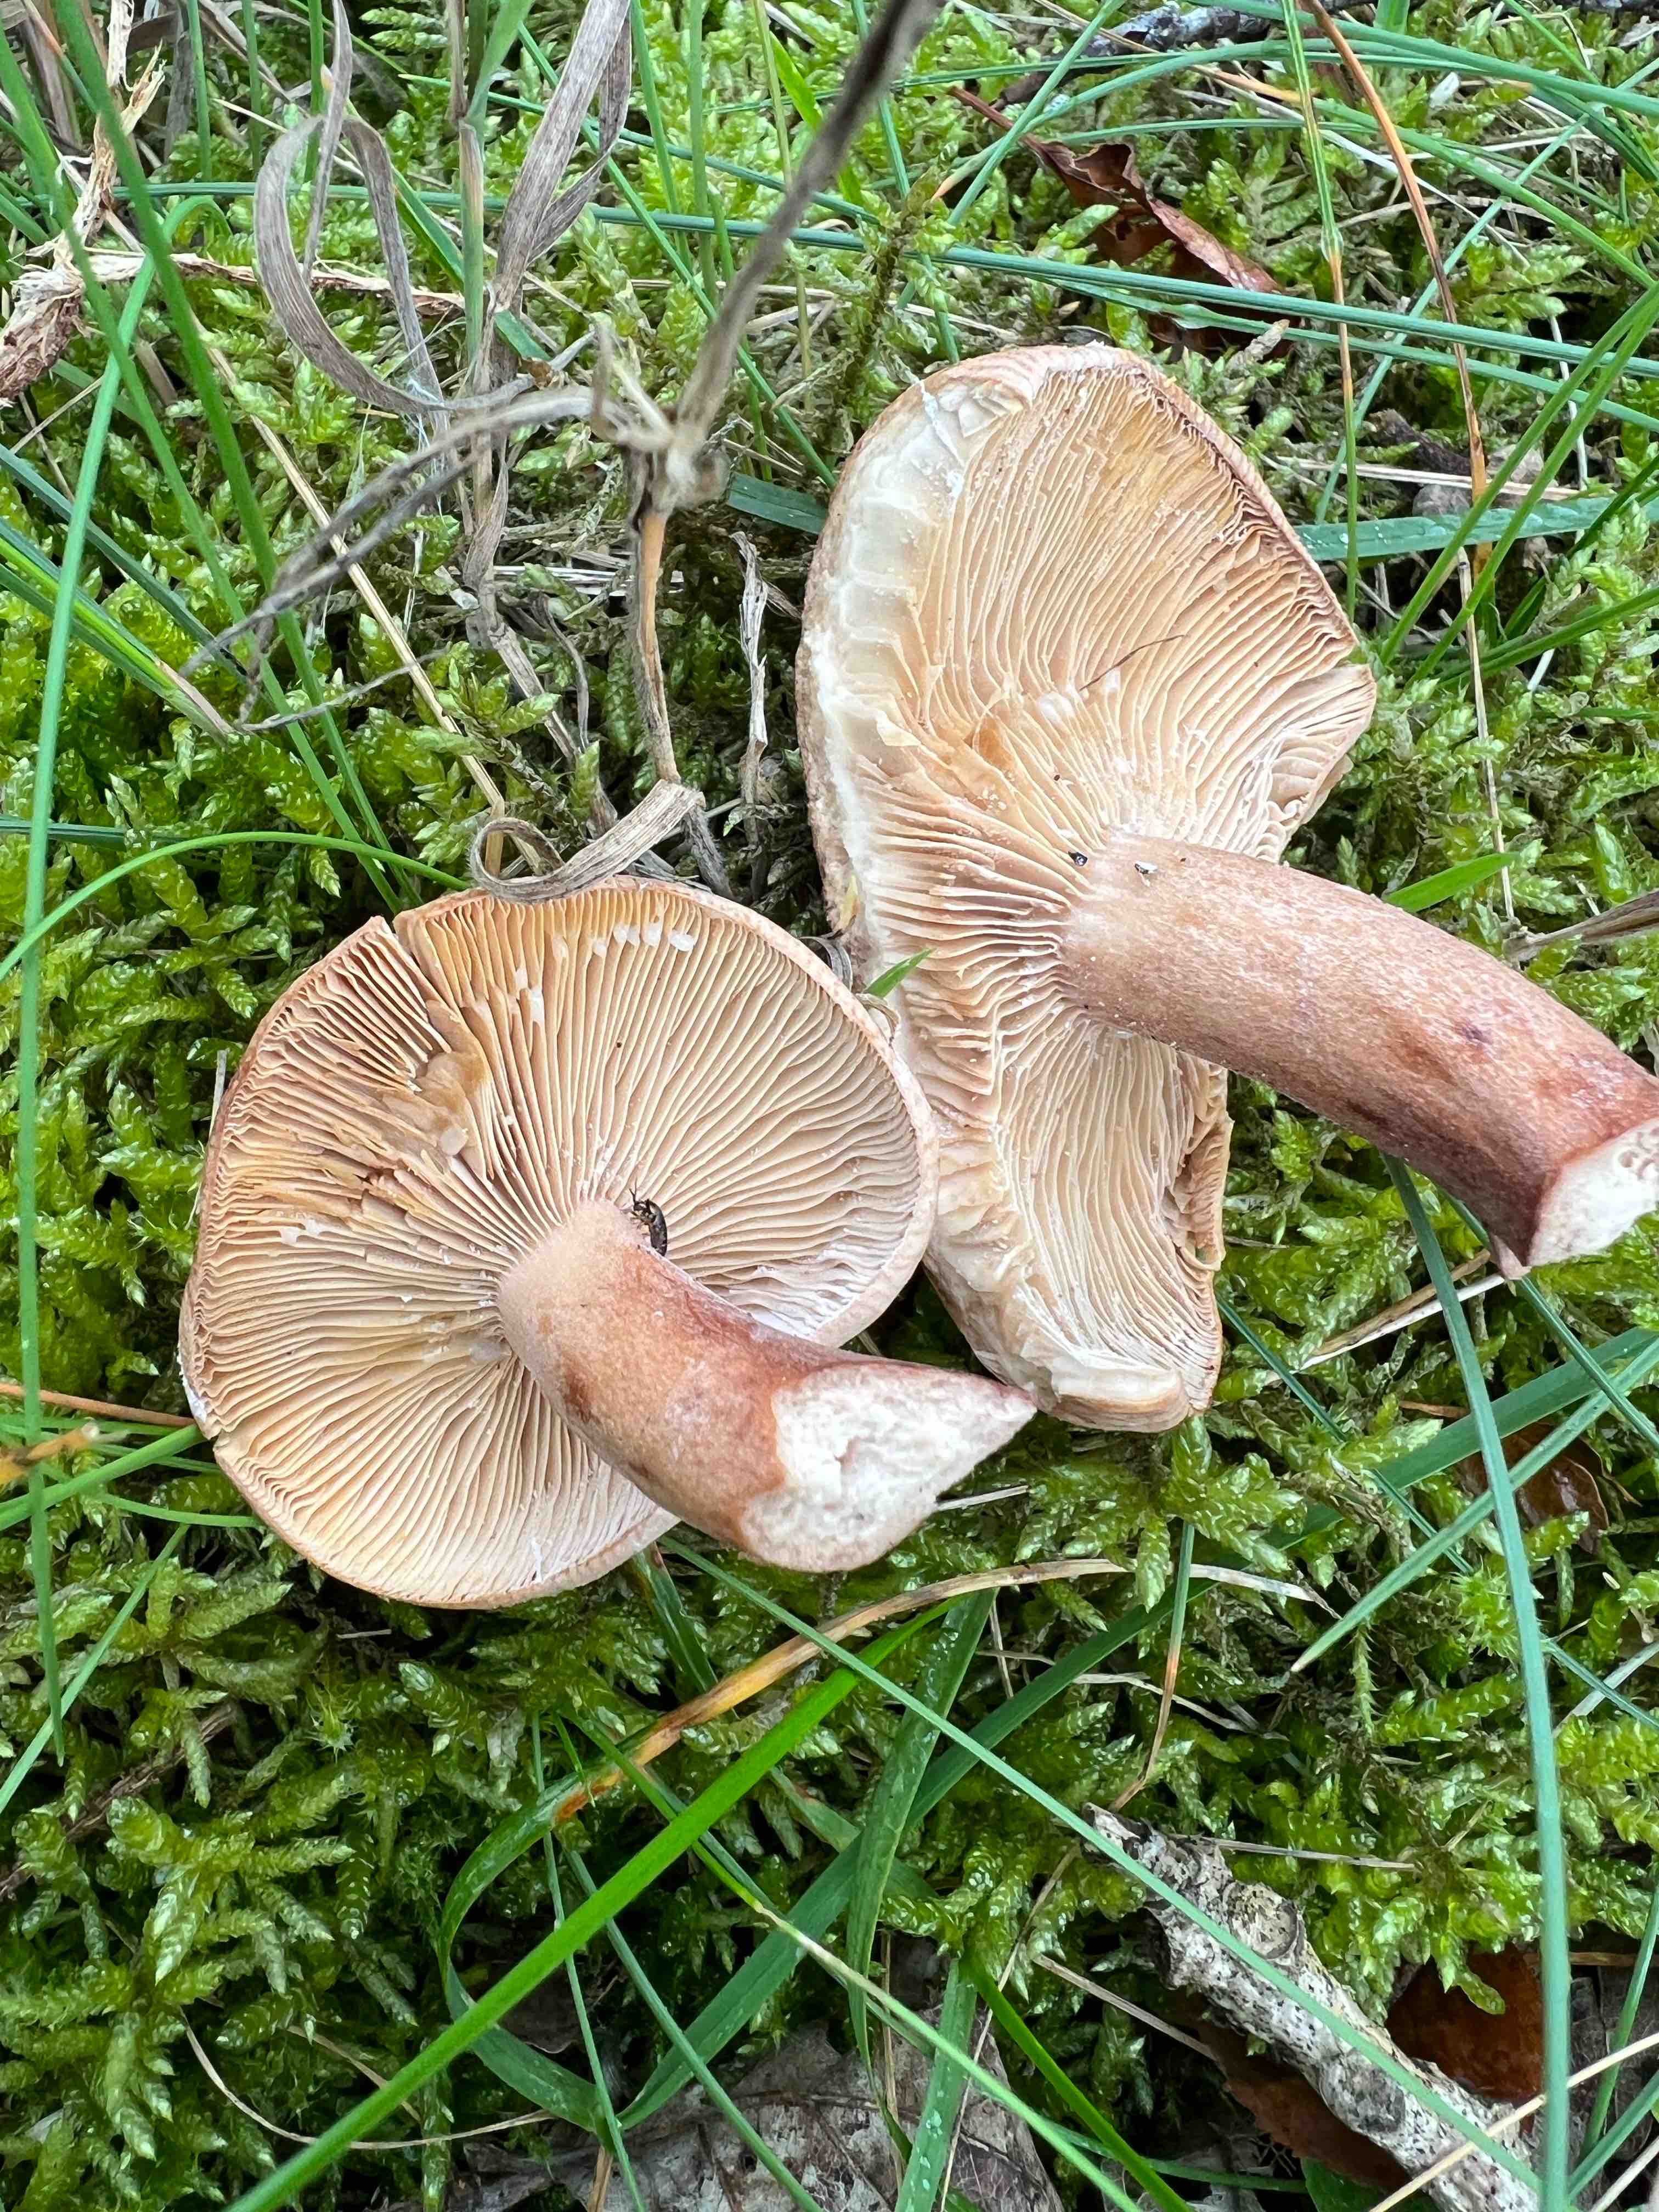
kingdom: Fungi
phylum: Basidiomycota
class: Agaricomycetes
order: Russulales
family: Russulaceae
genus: Lactarius
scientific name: Lactarius quietus
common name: ege-mælkehat
